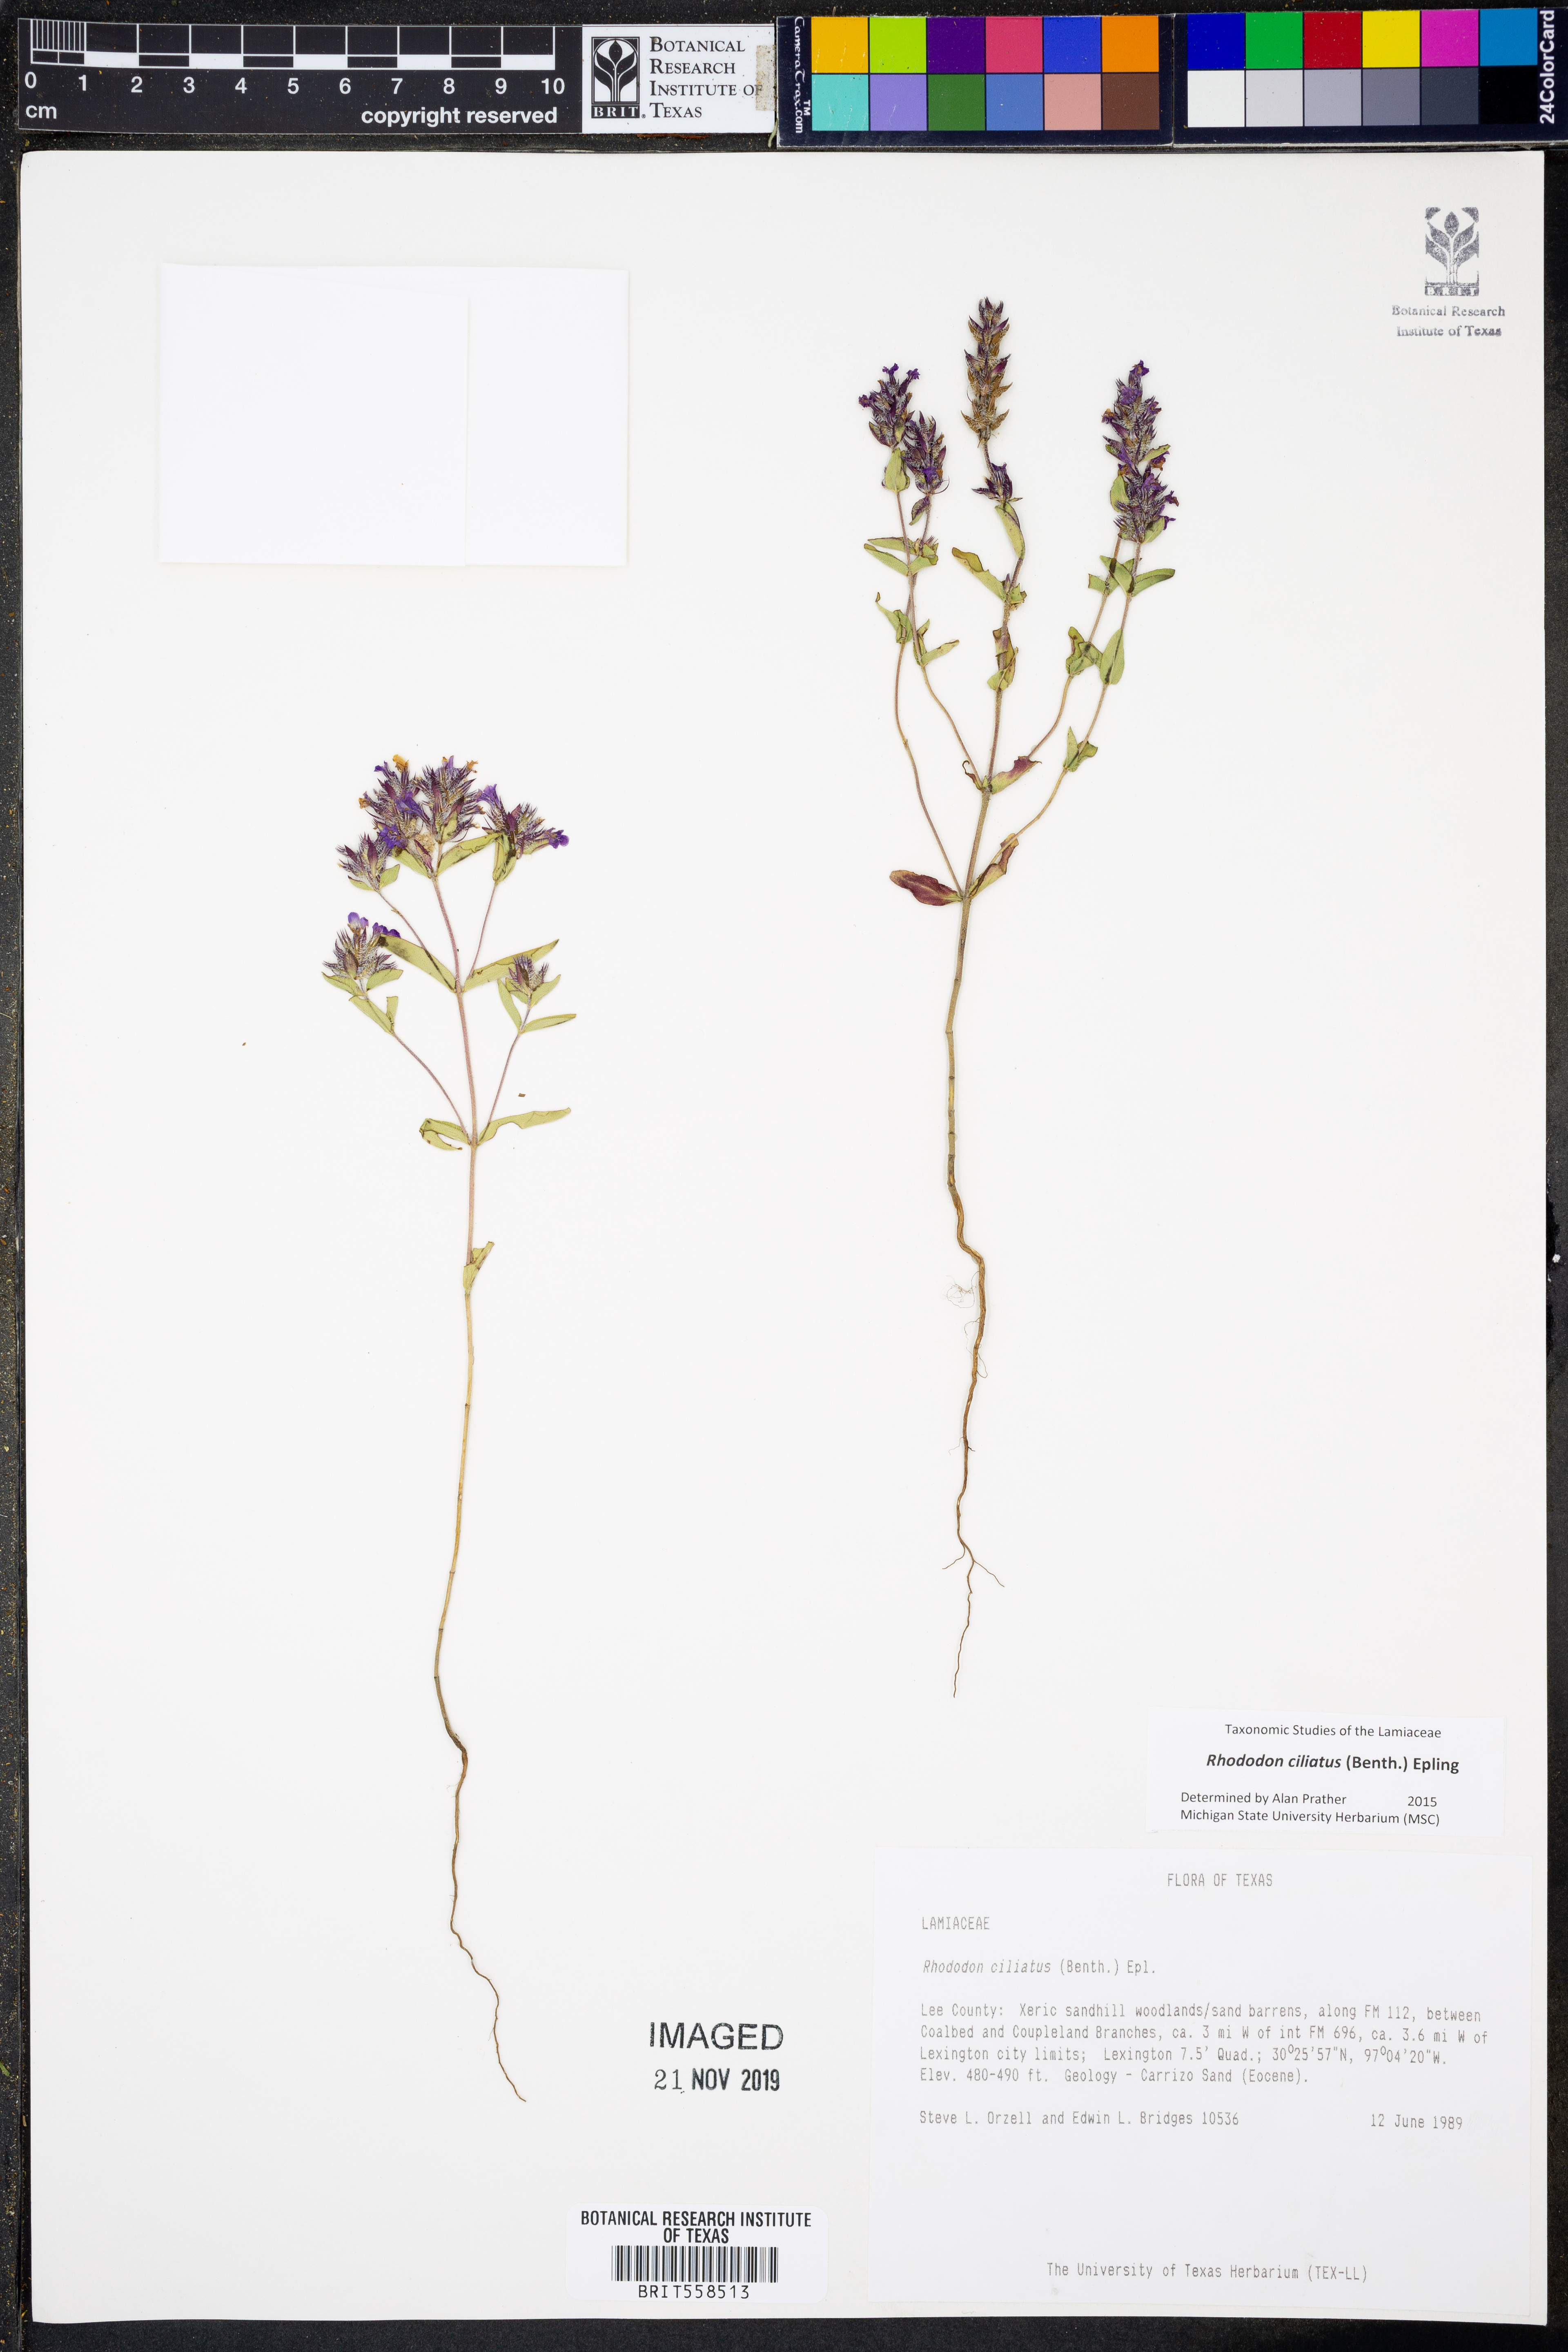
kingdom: Plantae
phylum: Tracheophyta
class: Magnoliopsida
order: Lamiales
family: Lamiaceae
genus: Rhododon
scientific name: Rhododon ciliatus
